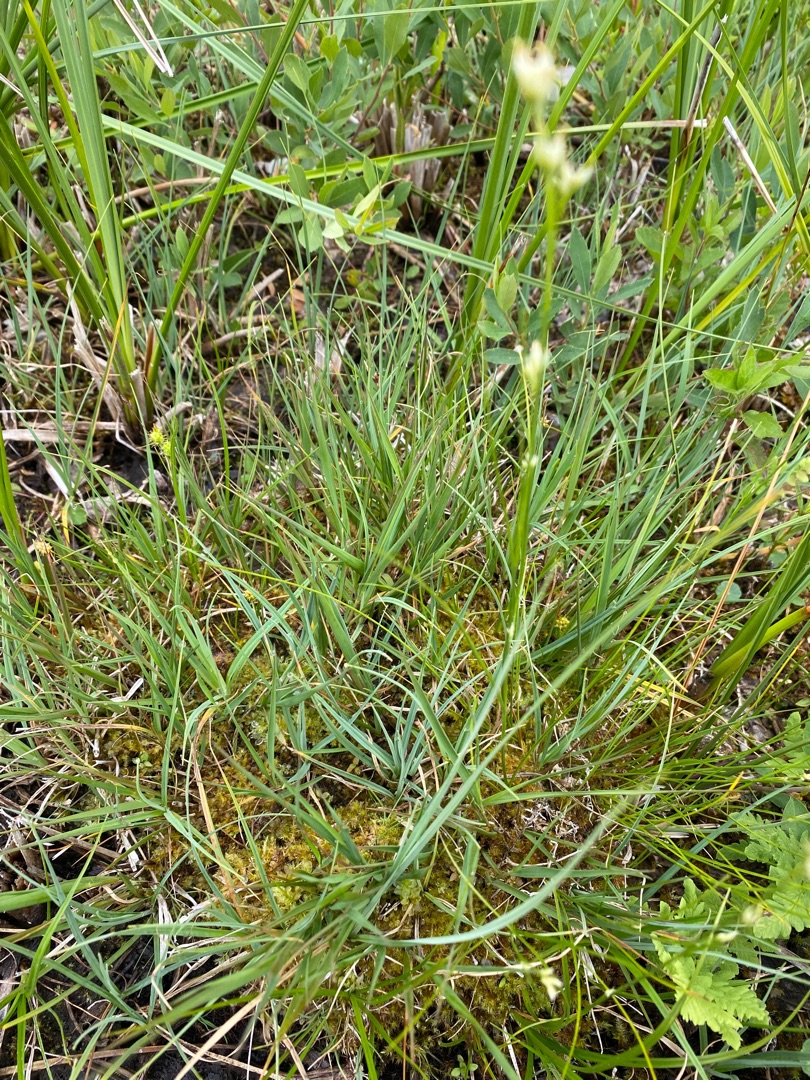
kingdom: Plantae
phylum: Tracheophyta
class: Liliopsida
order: Poales
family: Cyperaceae
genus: Rhynchospora
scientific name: Rhynchospora alba
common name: Hvid næbfrø
